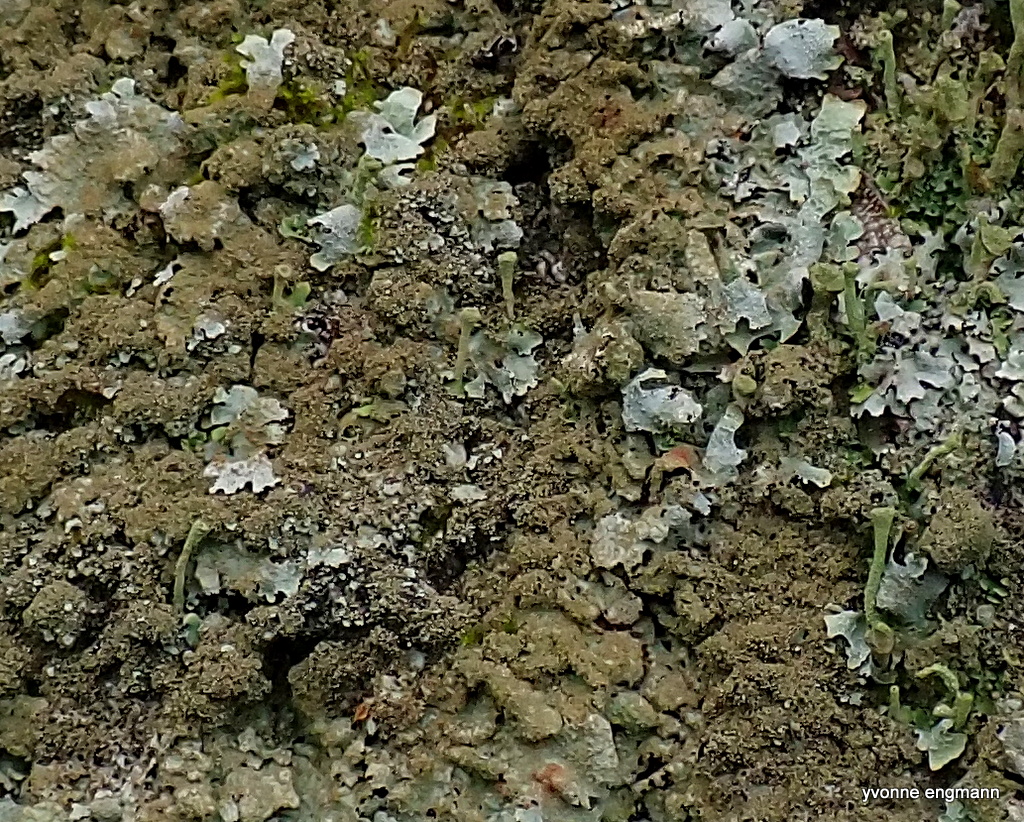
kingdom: Fungi
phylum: Ascomycota
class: Lecanoromycetes
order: Lecanorales
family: Parmeliaceae
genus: Parmelia
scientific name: Parmelia
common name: farve-skållav
